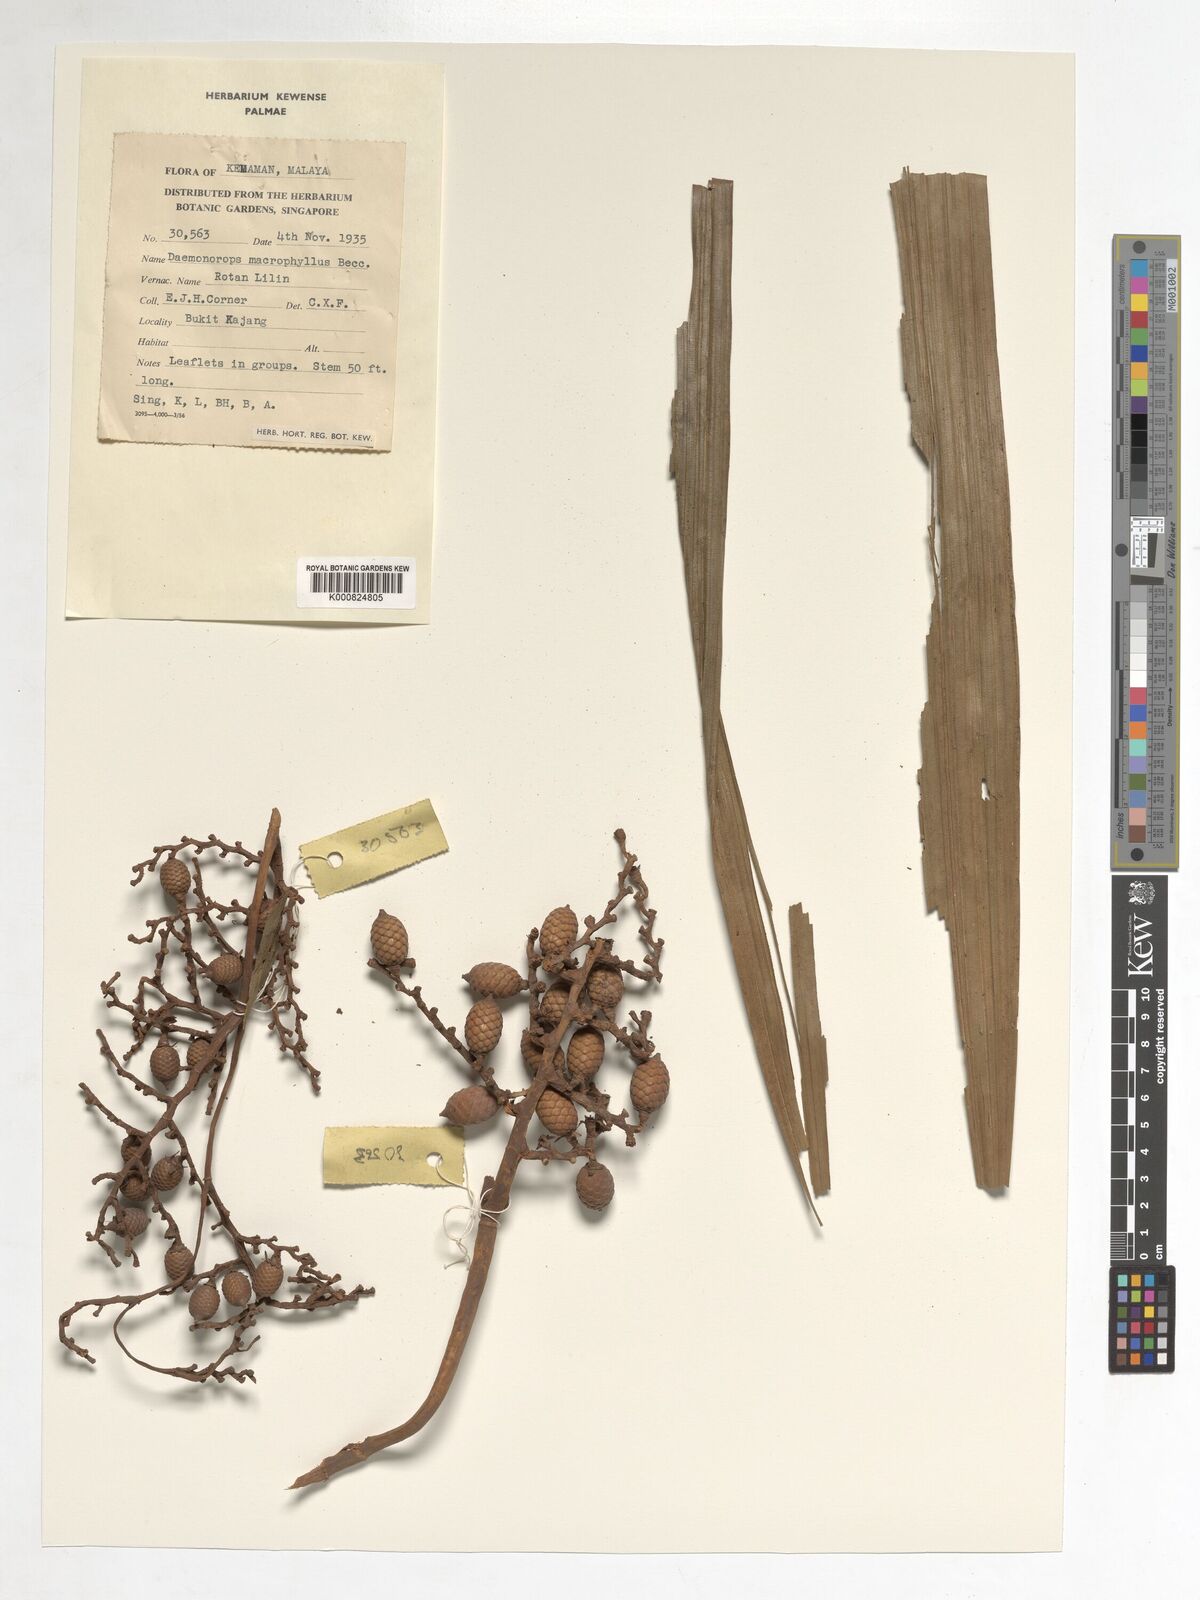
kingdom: Plantae
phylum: Tracheophyta
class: Liliopsida
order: Arecales
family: Arecaceae
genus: Calamus
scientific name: Calamus crinitus
